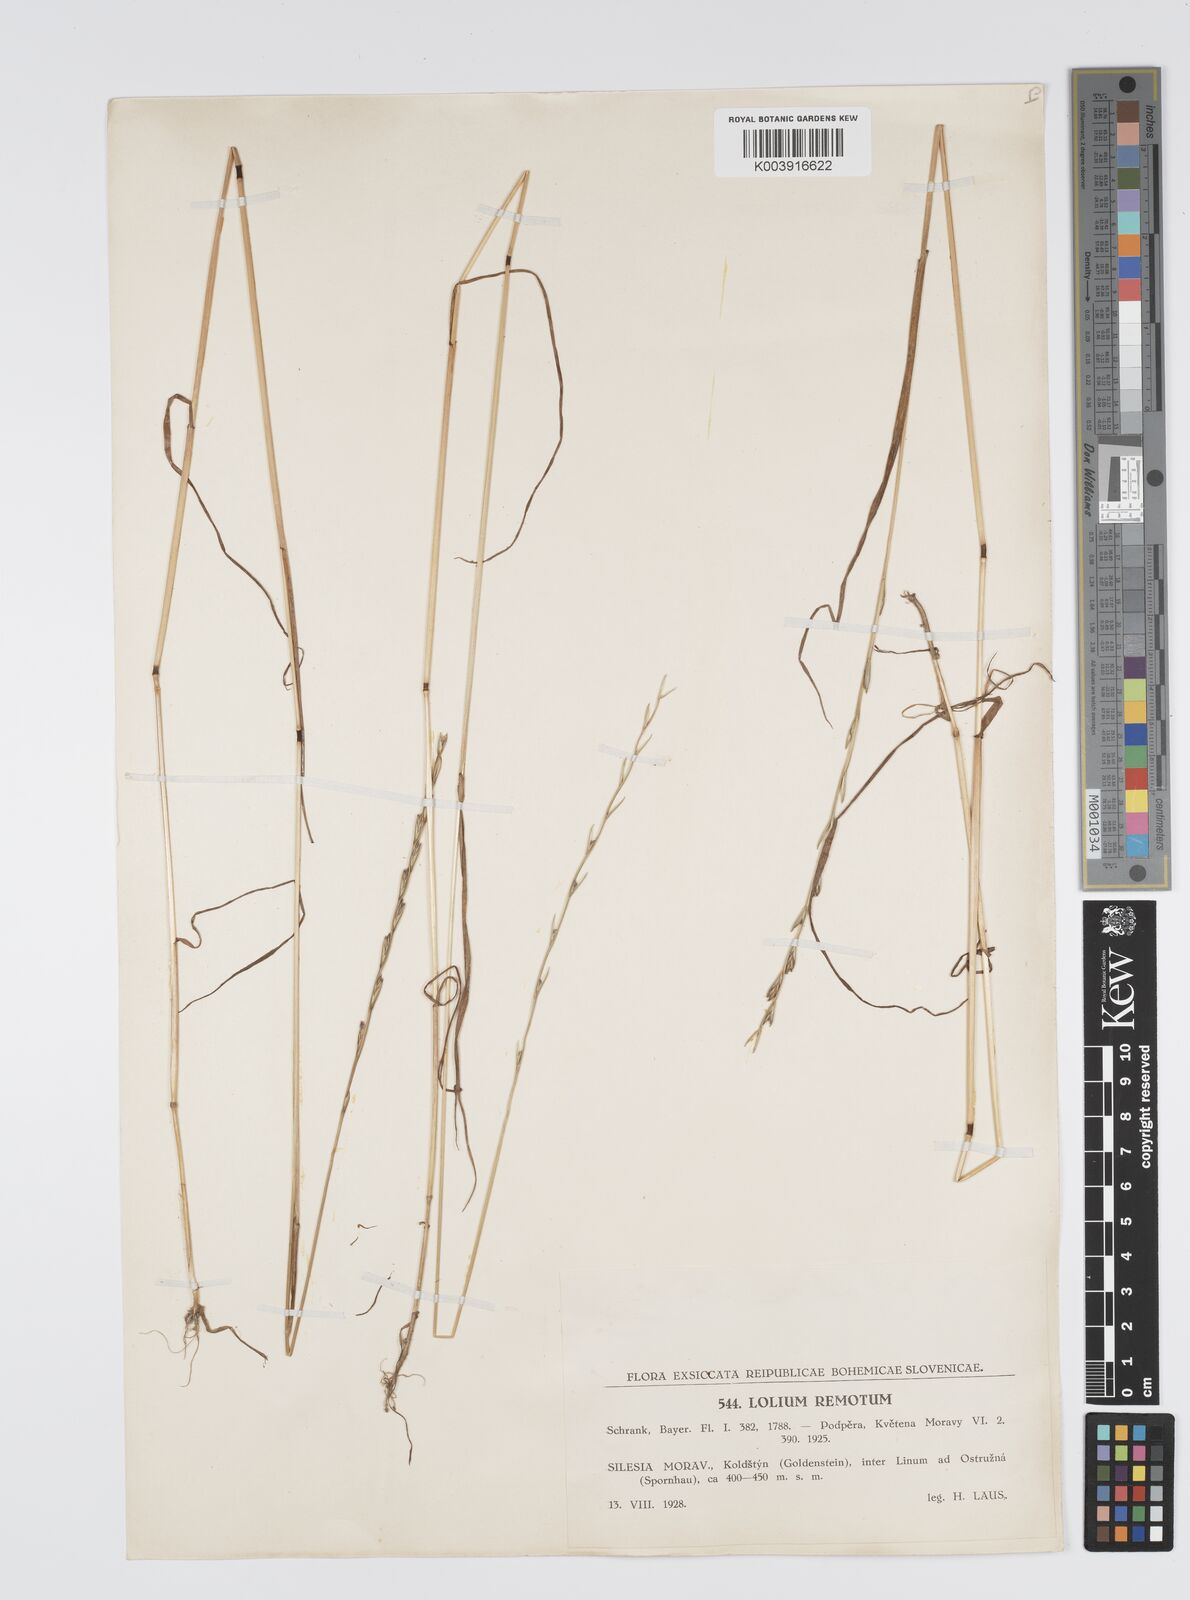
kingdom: Plantae
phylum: Tracheophyta
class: Liliopsida
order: Poales
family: Poaceae
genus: Lolium
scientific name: Lolium remotum
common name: Flaxfield rye-grass
